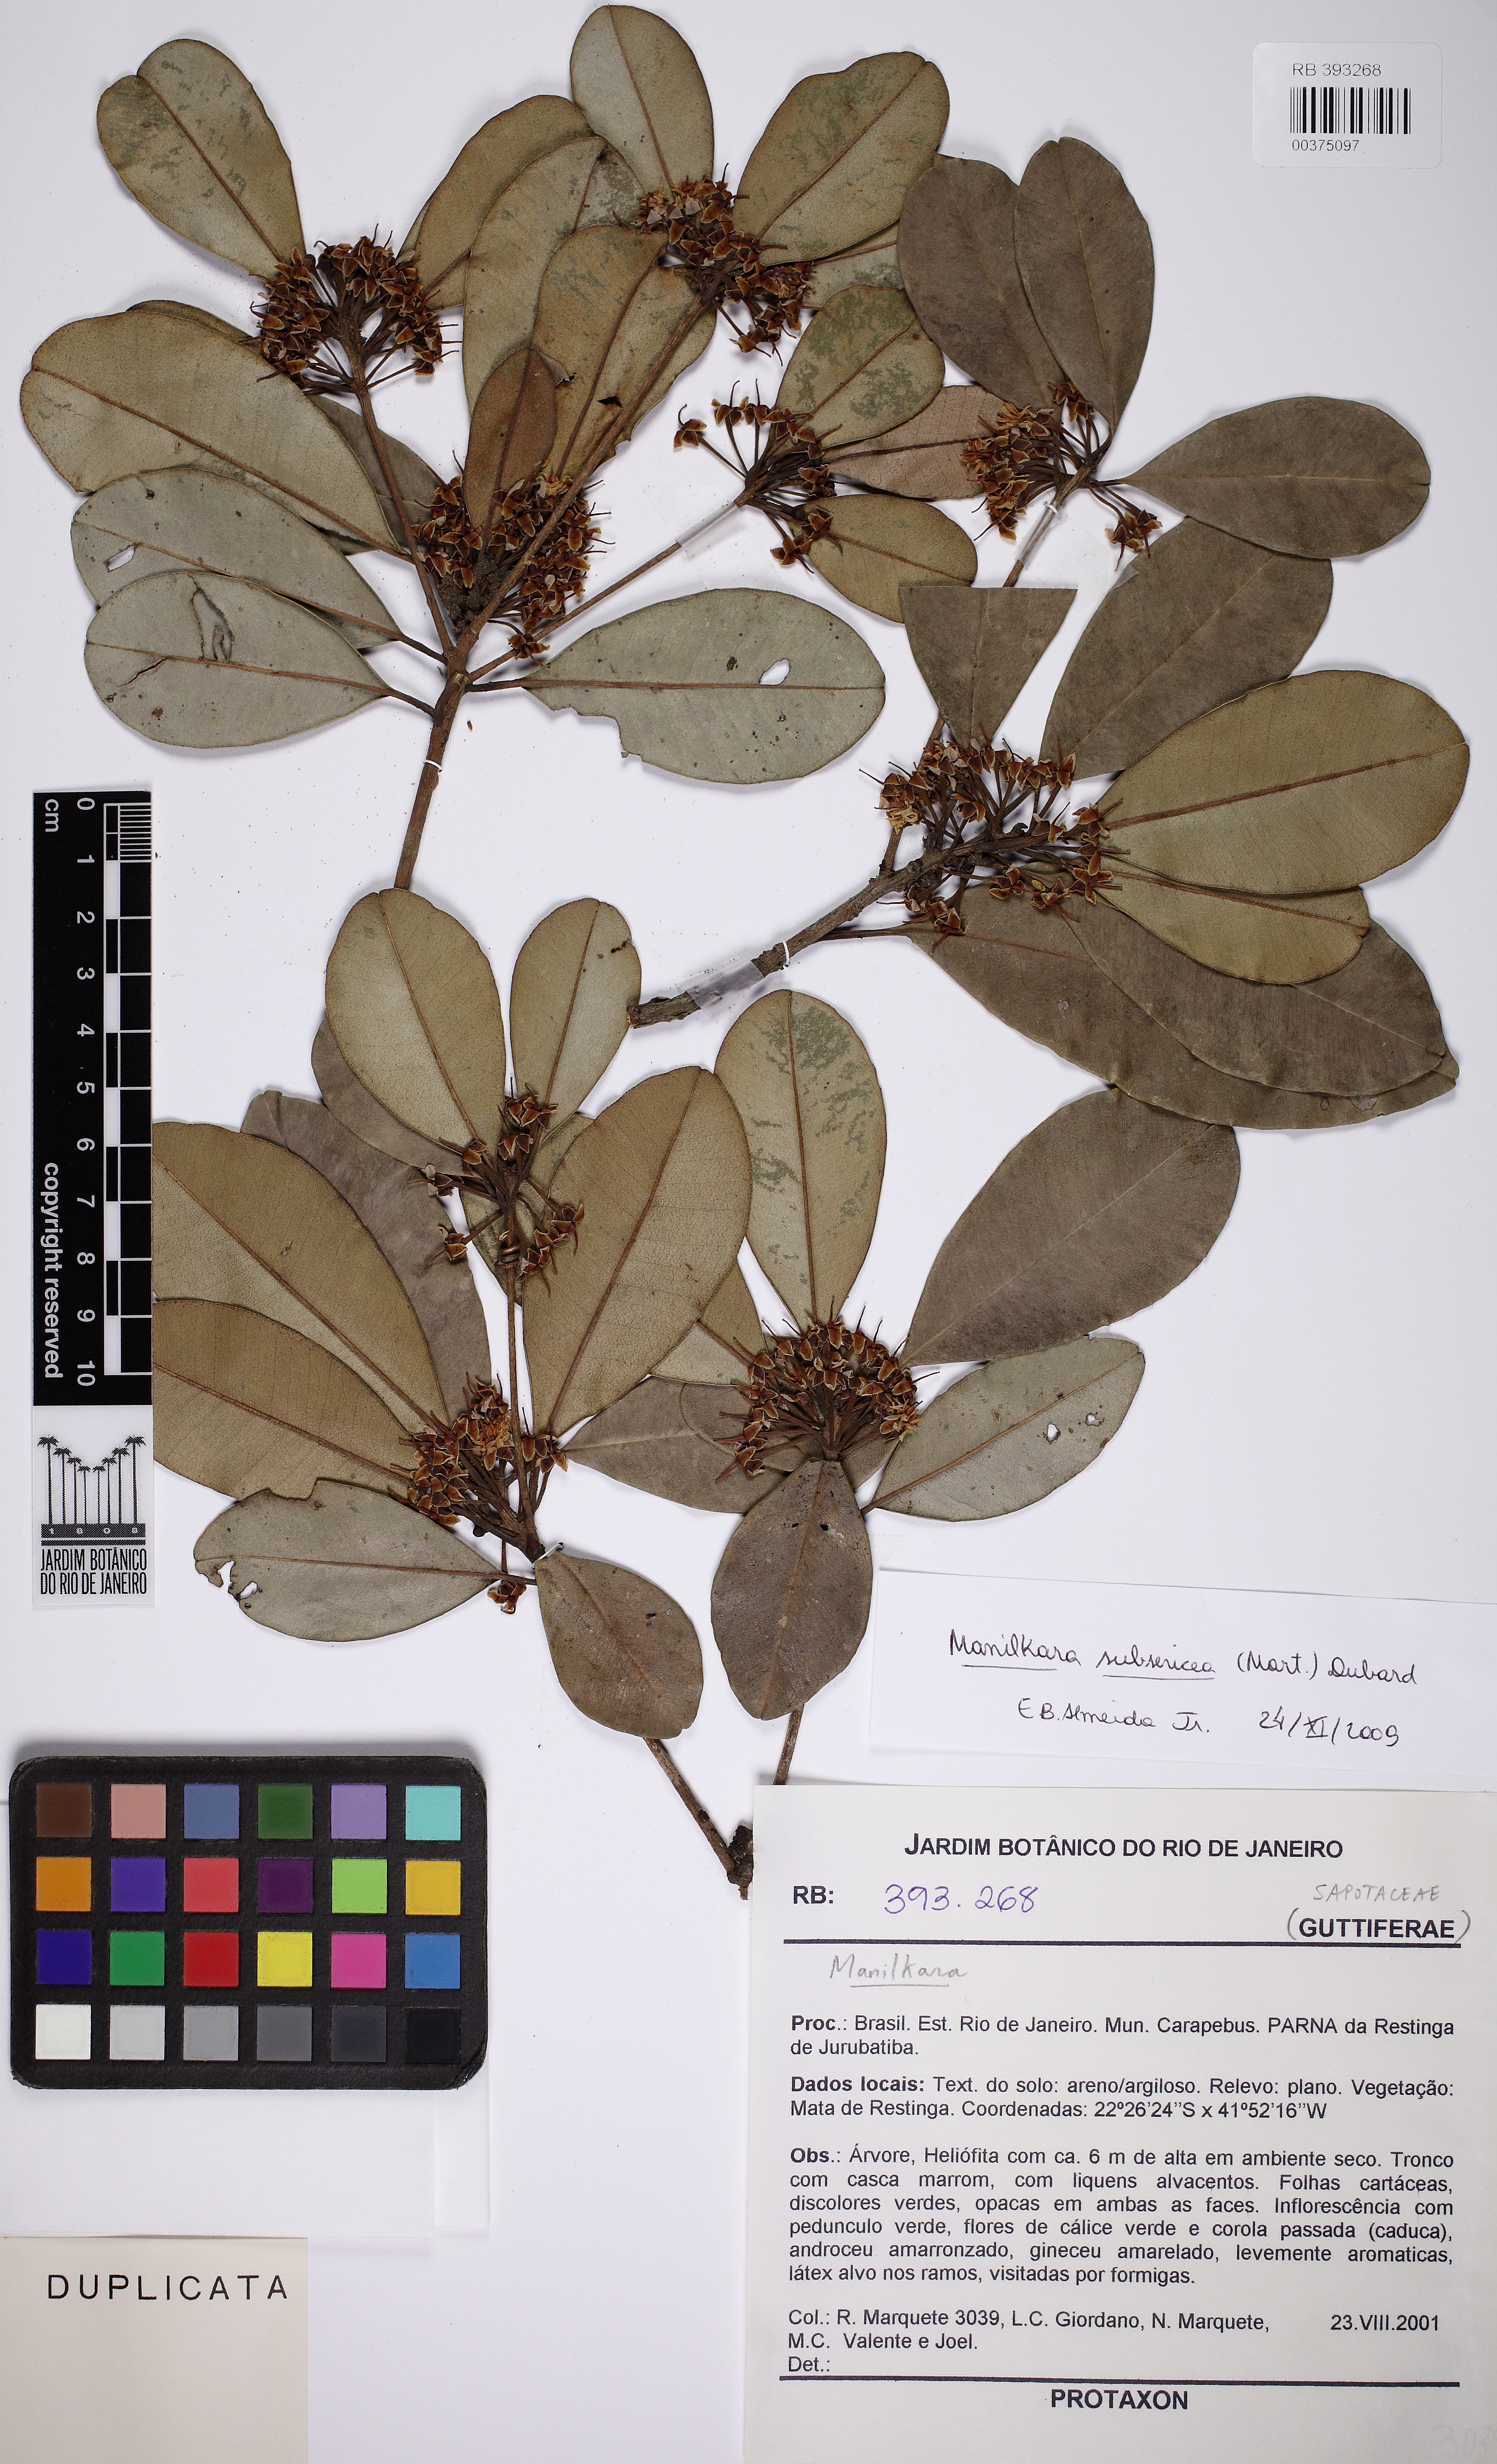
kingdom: Plantae
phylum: Tracheophyta
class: Magnoliopsida
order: Ericales
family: Sapotaceae
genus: Manilkara
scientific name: Manilkara subsericea
